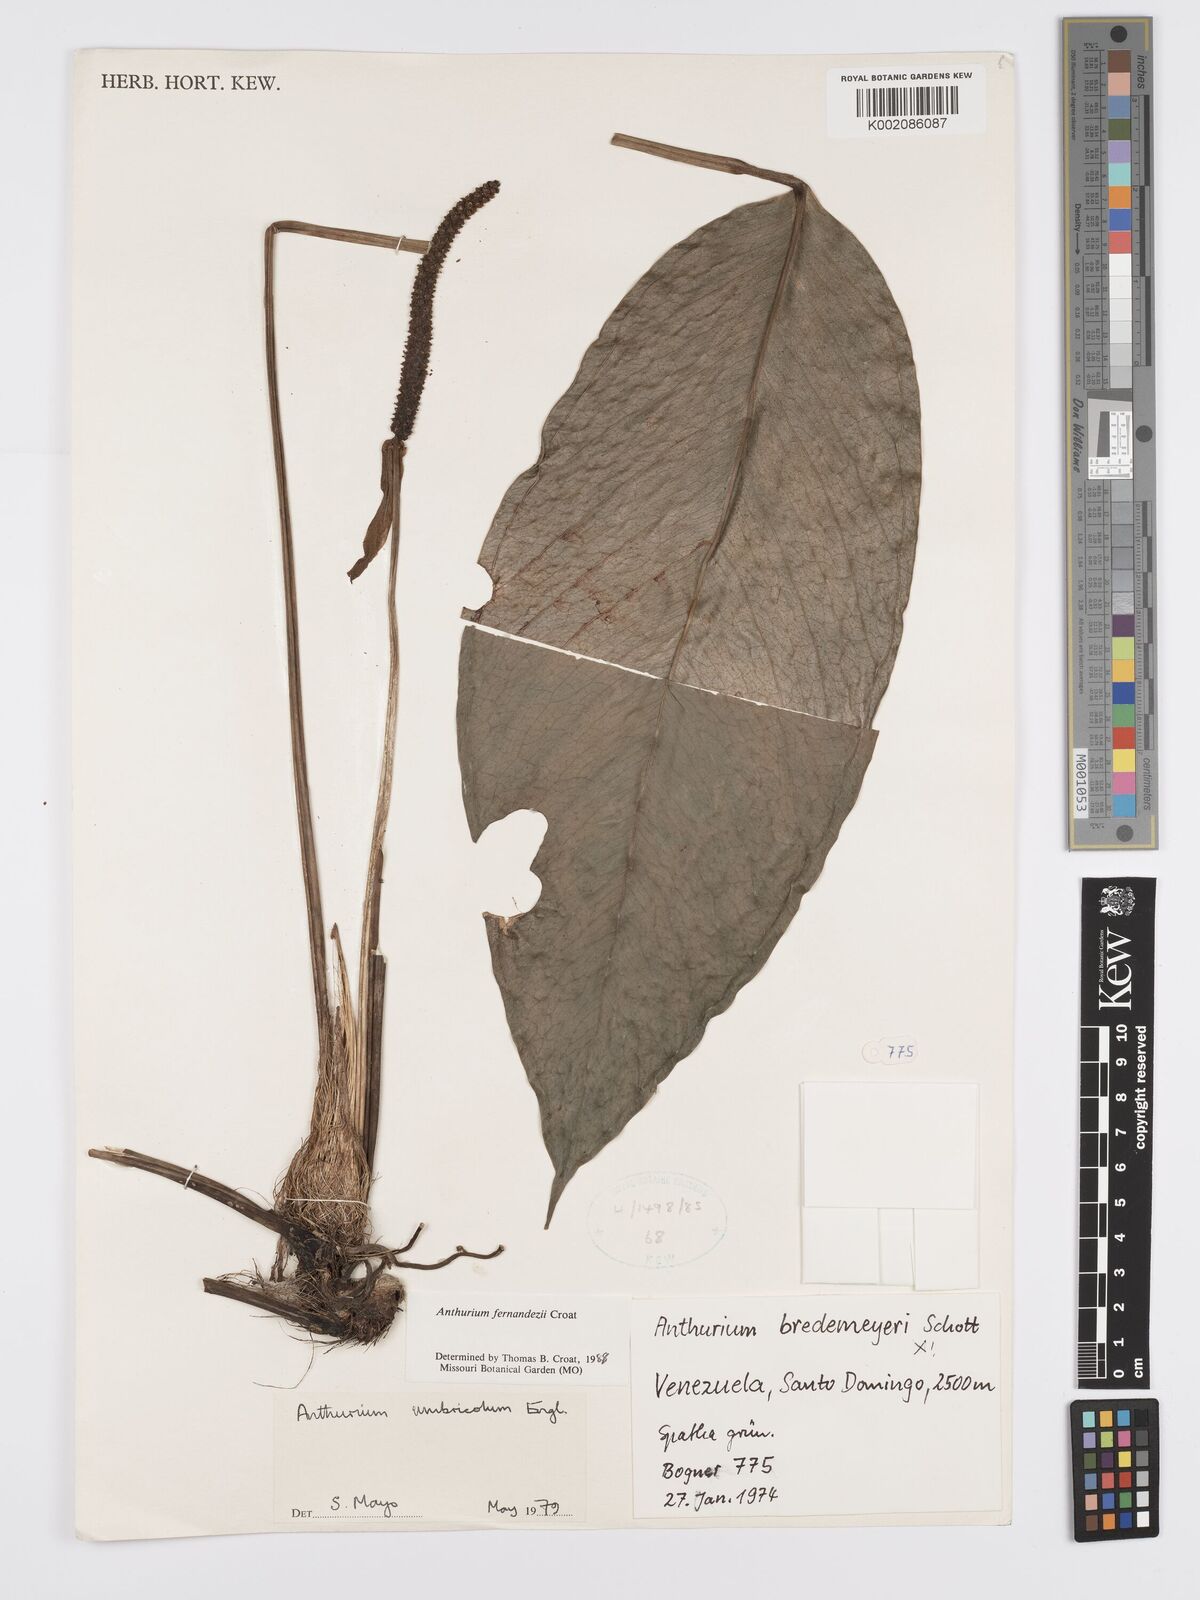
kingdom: Plantae
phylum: Tracheophyta
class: Liliopsida
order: Alismatales
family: Araceae
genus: Anthurium
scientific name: Anthurium fernandezii
